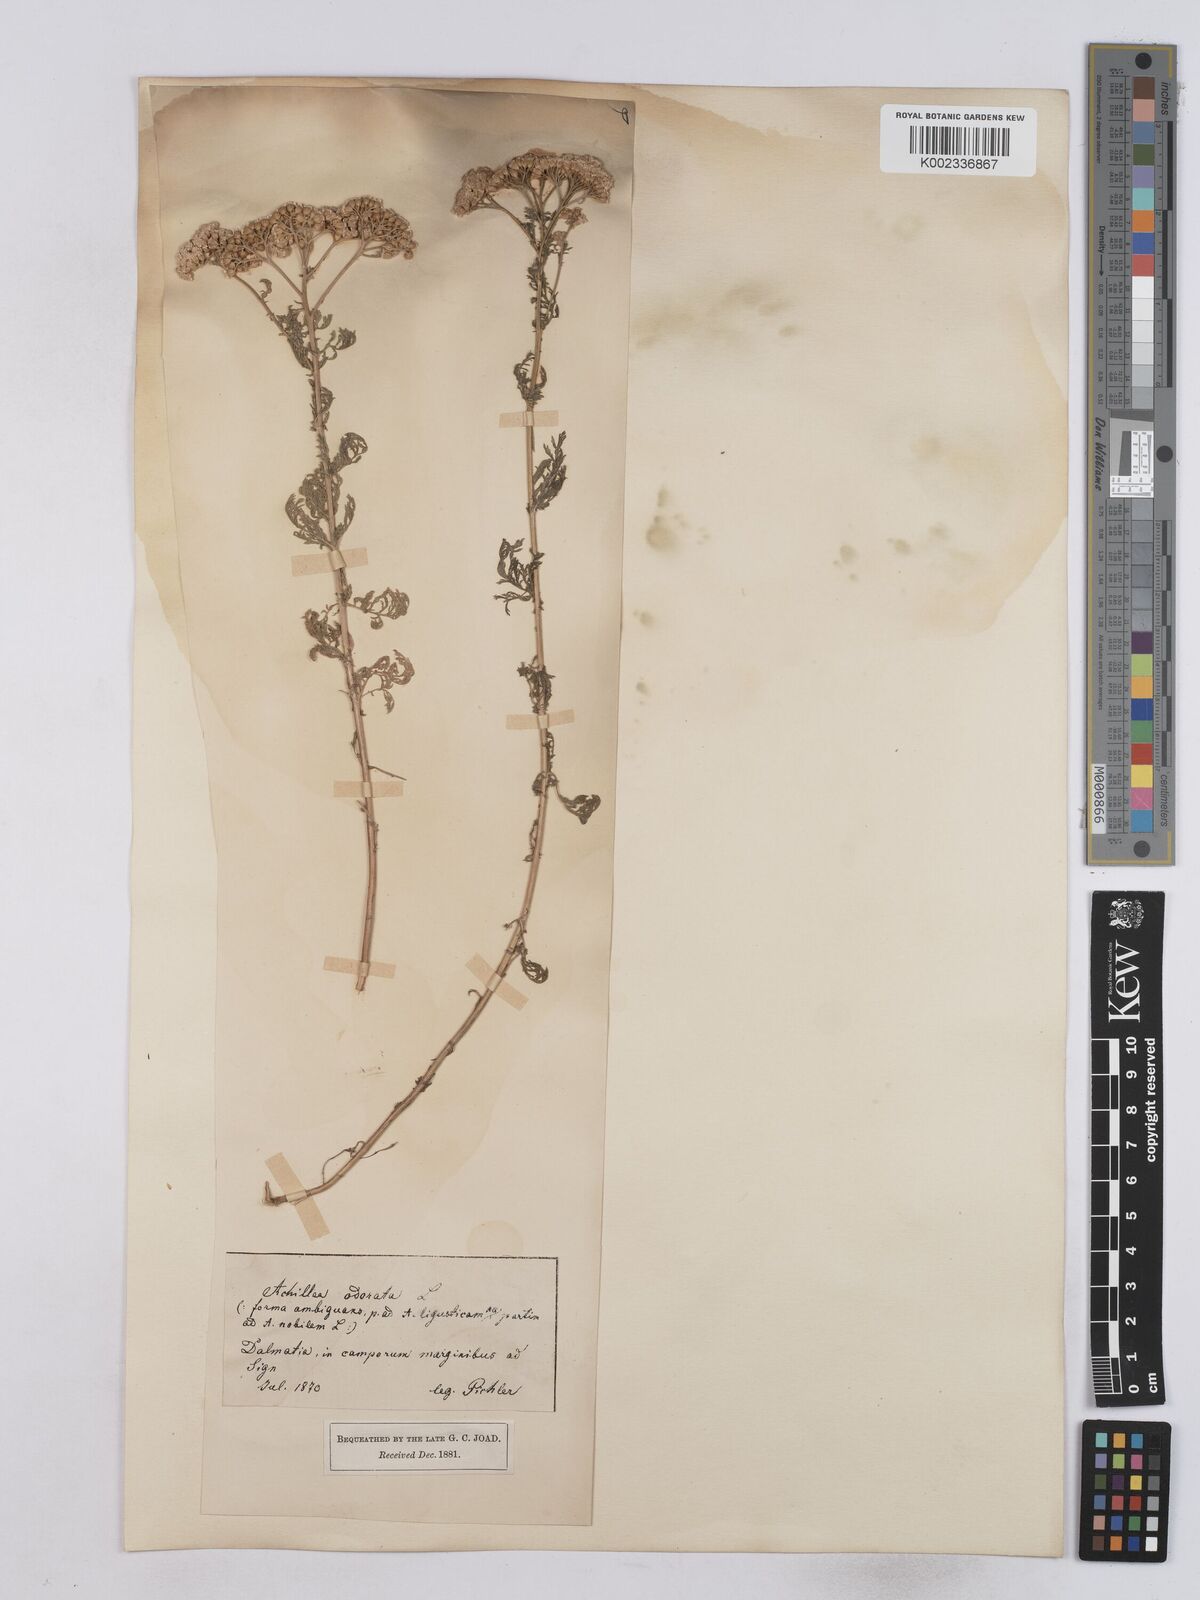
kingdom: Plantae
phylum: Tracheophyta
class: Magnoliopsida
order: Asterales
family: Asteraceae
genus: Achillea
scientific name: Achillea odorata
